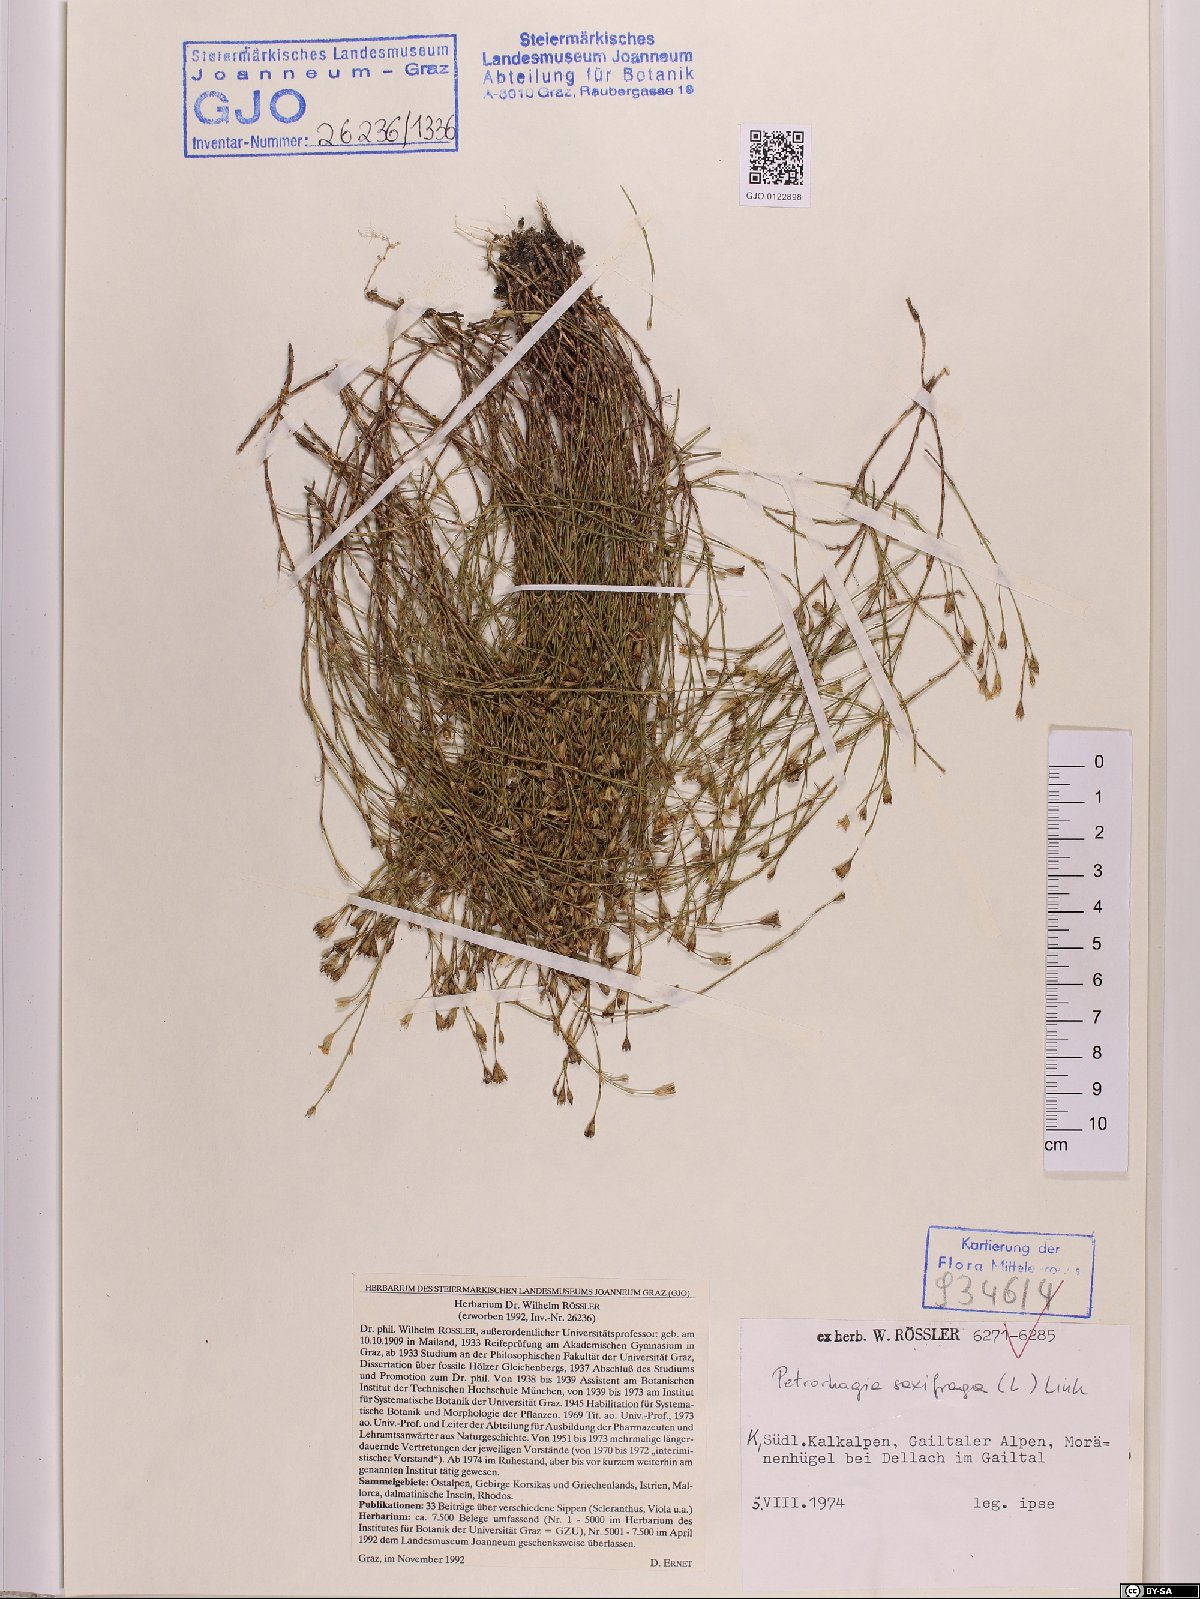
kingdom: Plantae
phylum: Tracheophyta
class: Magnoliopsida
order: Malpighiales
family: Linaceae
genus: Linum
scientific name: Linum viscosum
